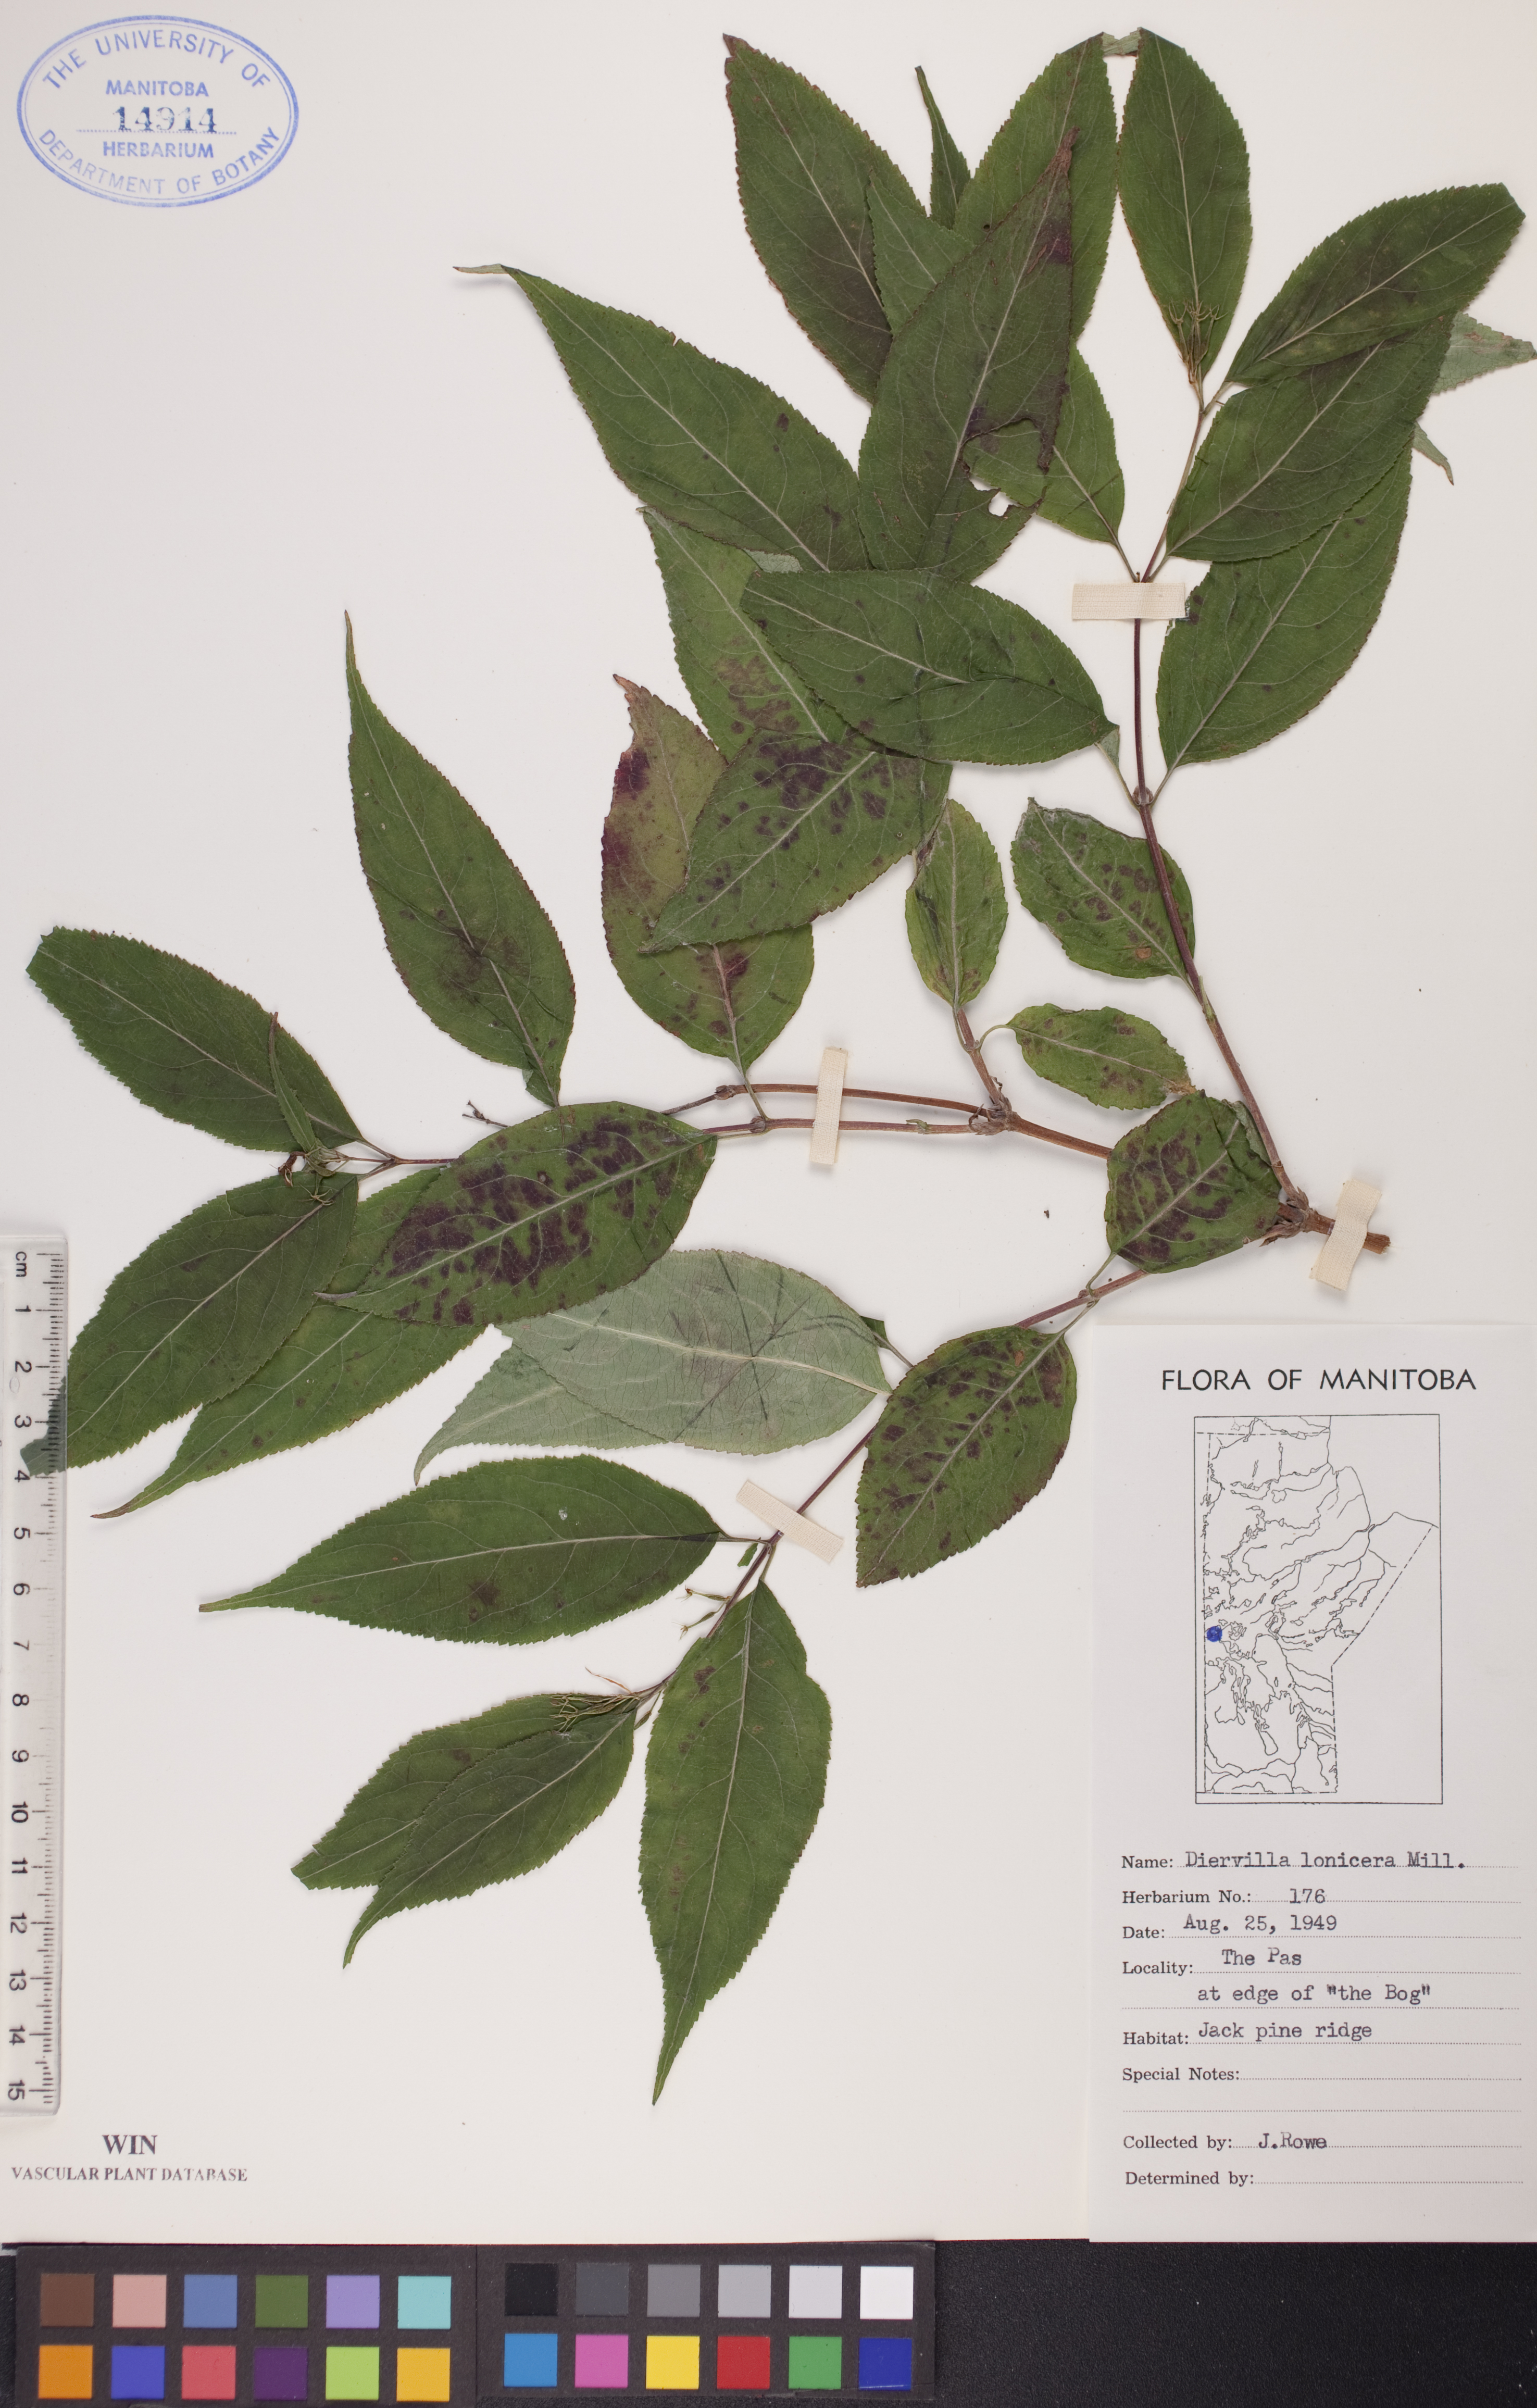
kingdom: Plantae
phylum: Tracheophyta
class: Magnoliopsida
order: Dipsacales
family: Caprifoliaceae
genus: Diervilla
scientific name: Diervilla lonicera
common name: Bush-honeysuckle
